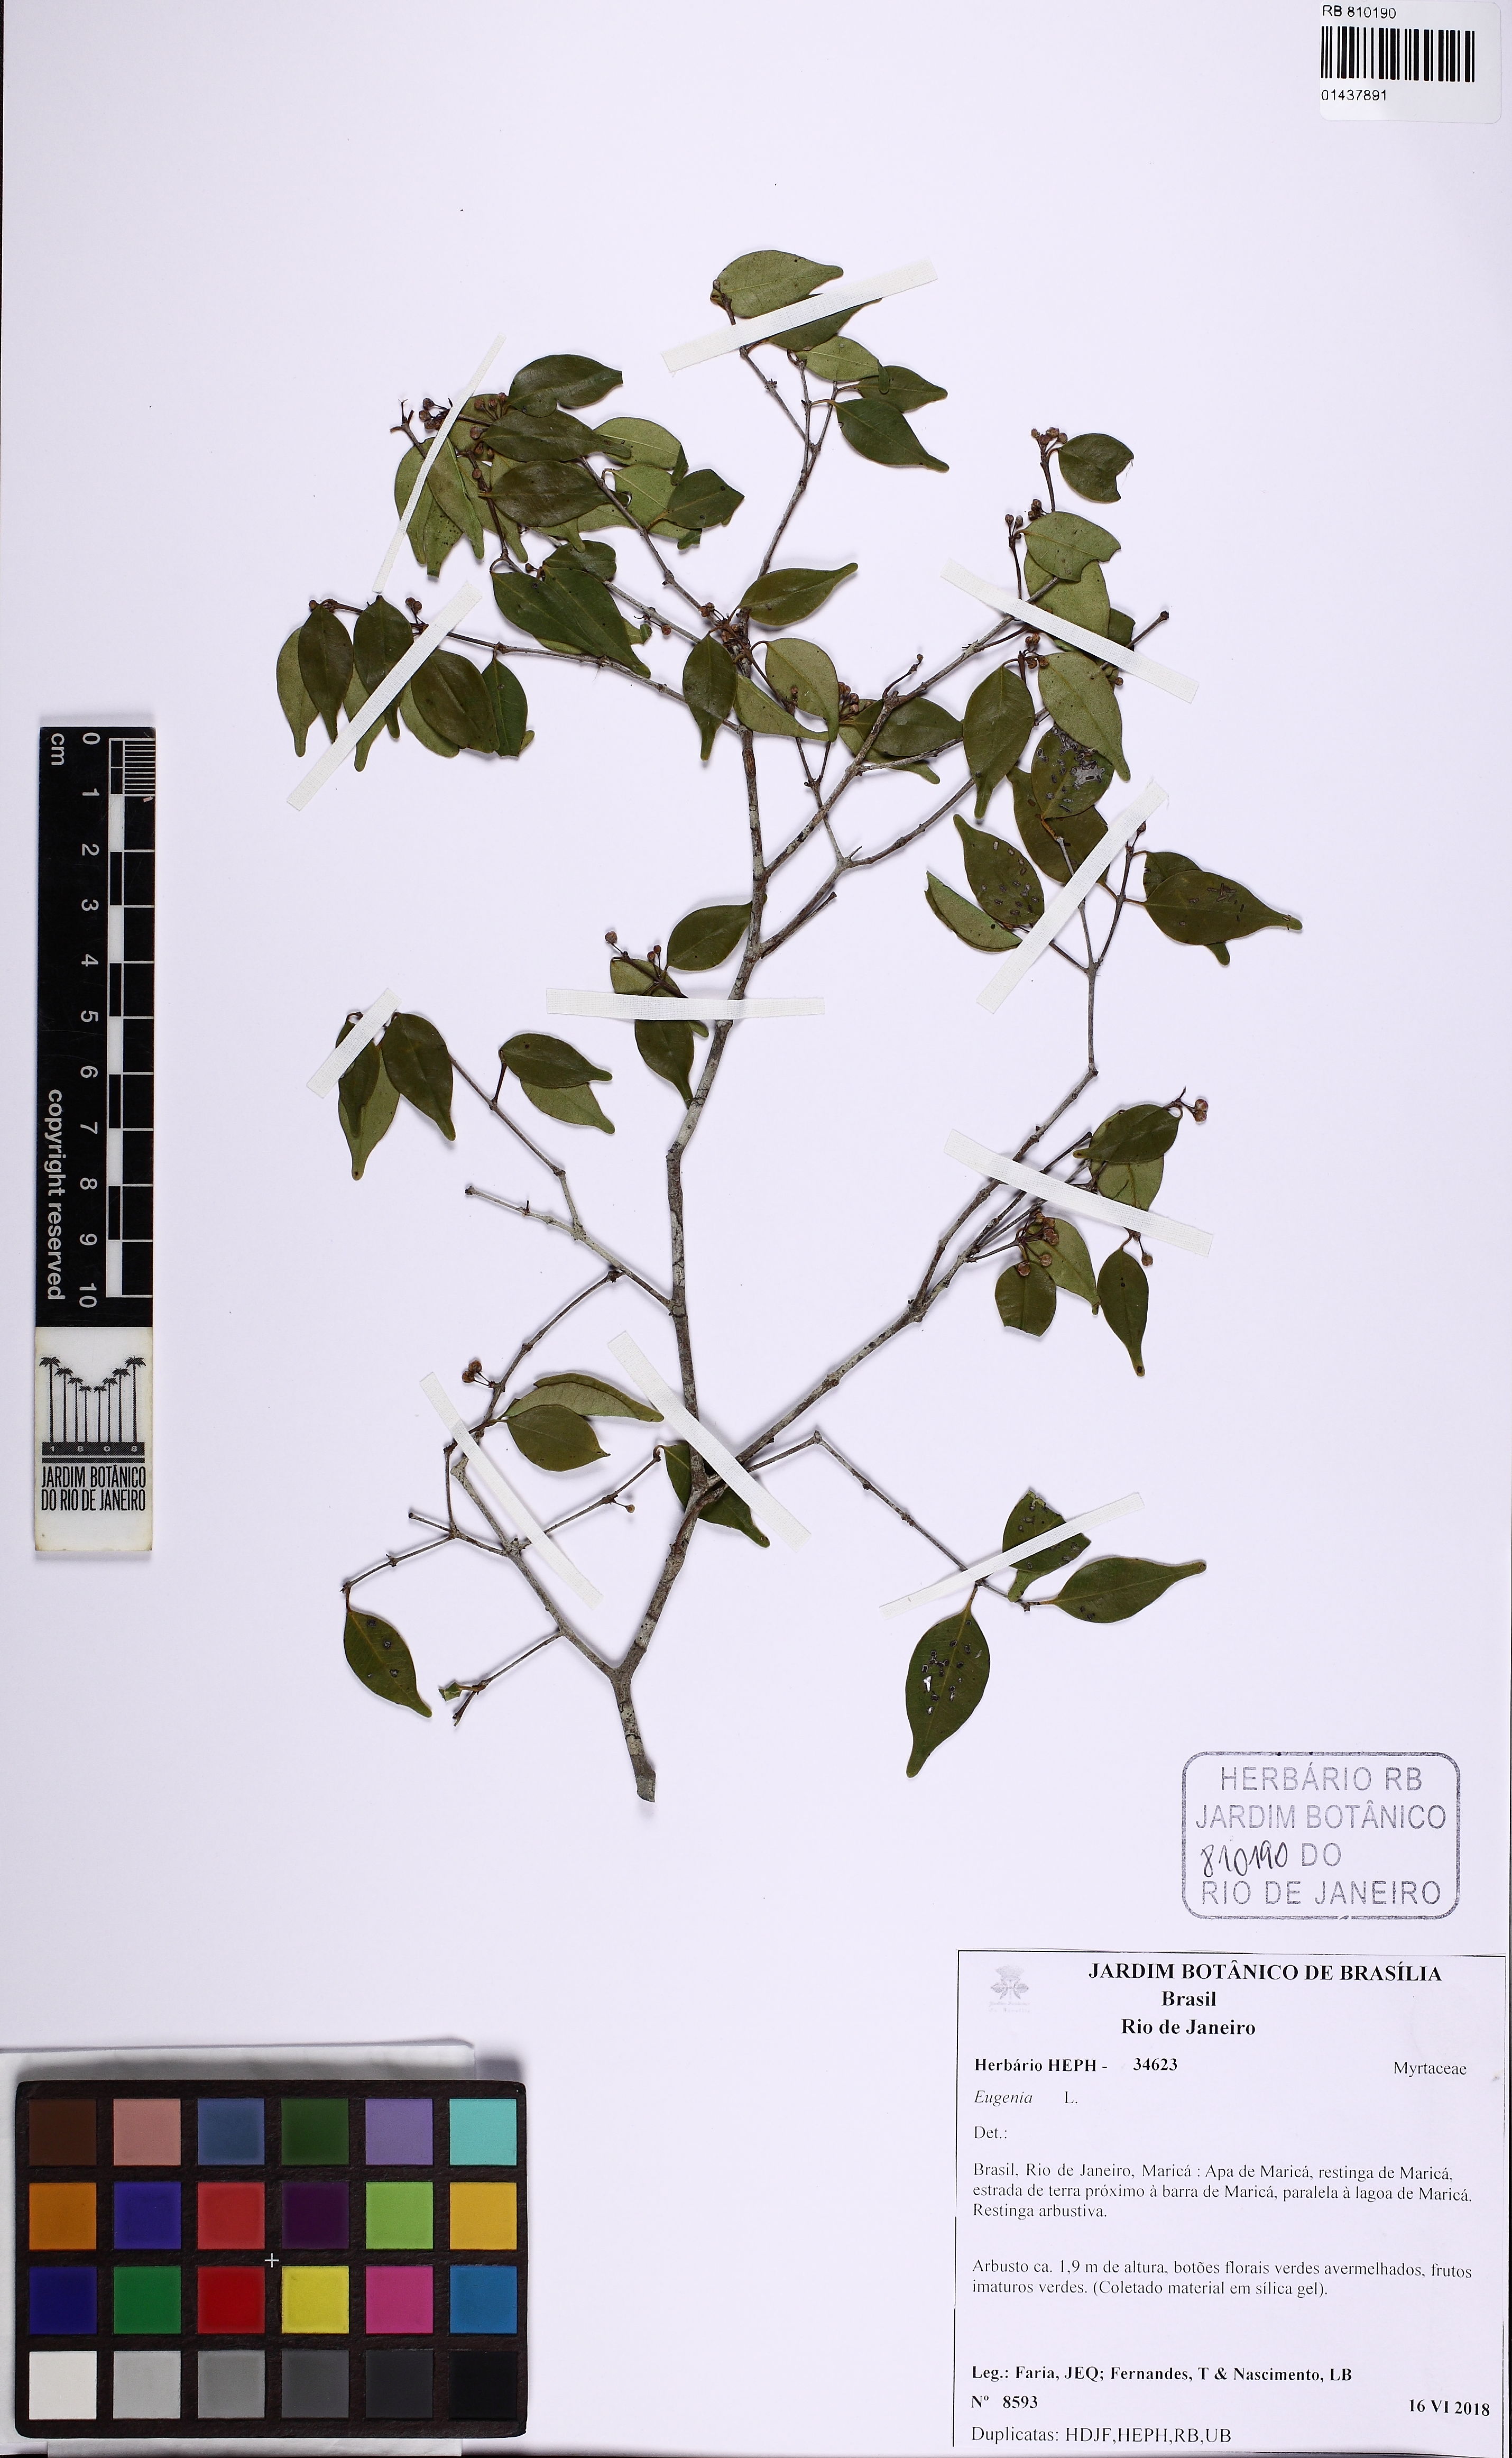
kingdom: Plantae
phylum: Tracheophyta
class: Magnoliopsida
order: Myrtales
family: Myrtaceae
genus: Eugenia
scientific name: Eugenia
